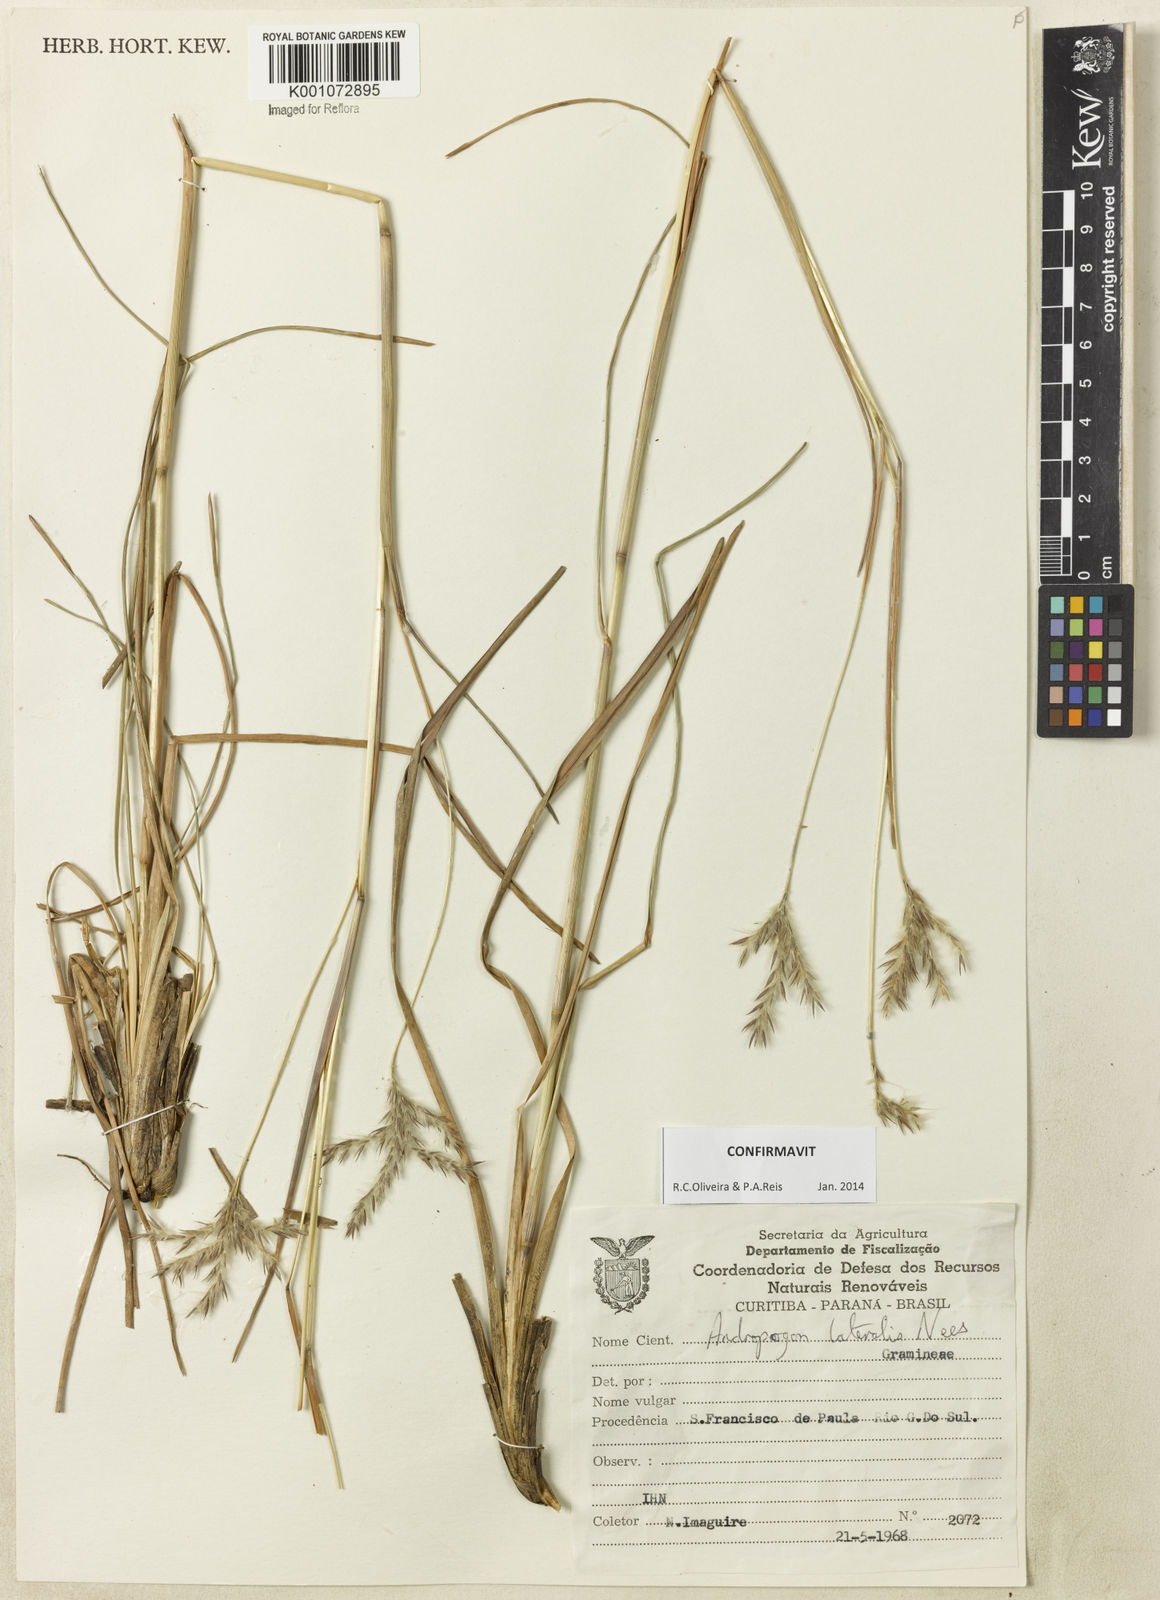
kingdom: Plantae
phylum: Tracheophyta
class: Liliopsida
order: Poales
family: Poaceae
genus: Andropogon
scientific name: Andropogon lateralis
